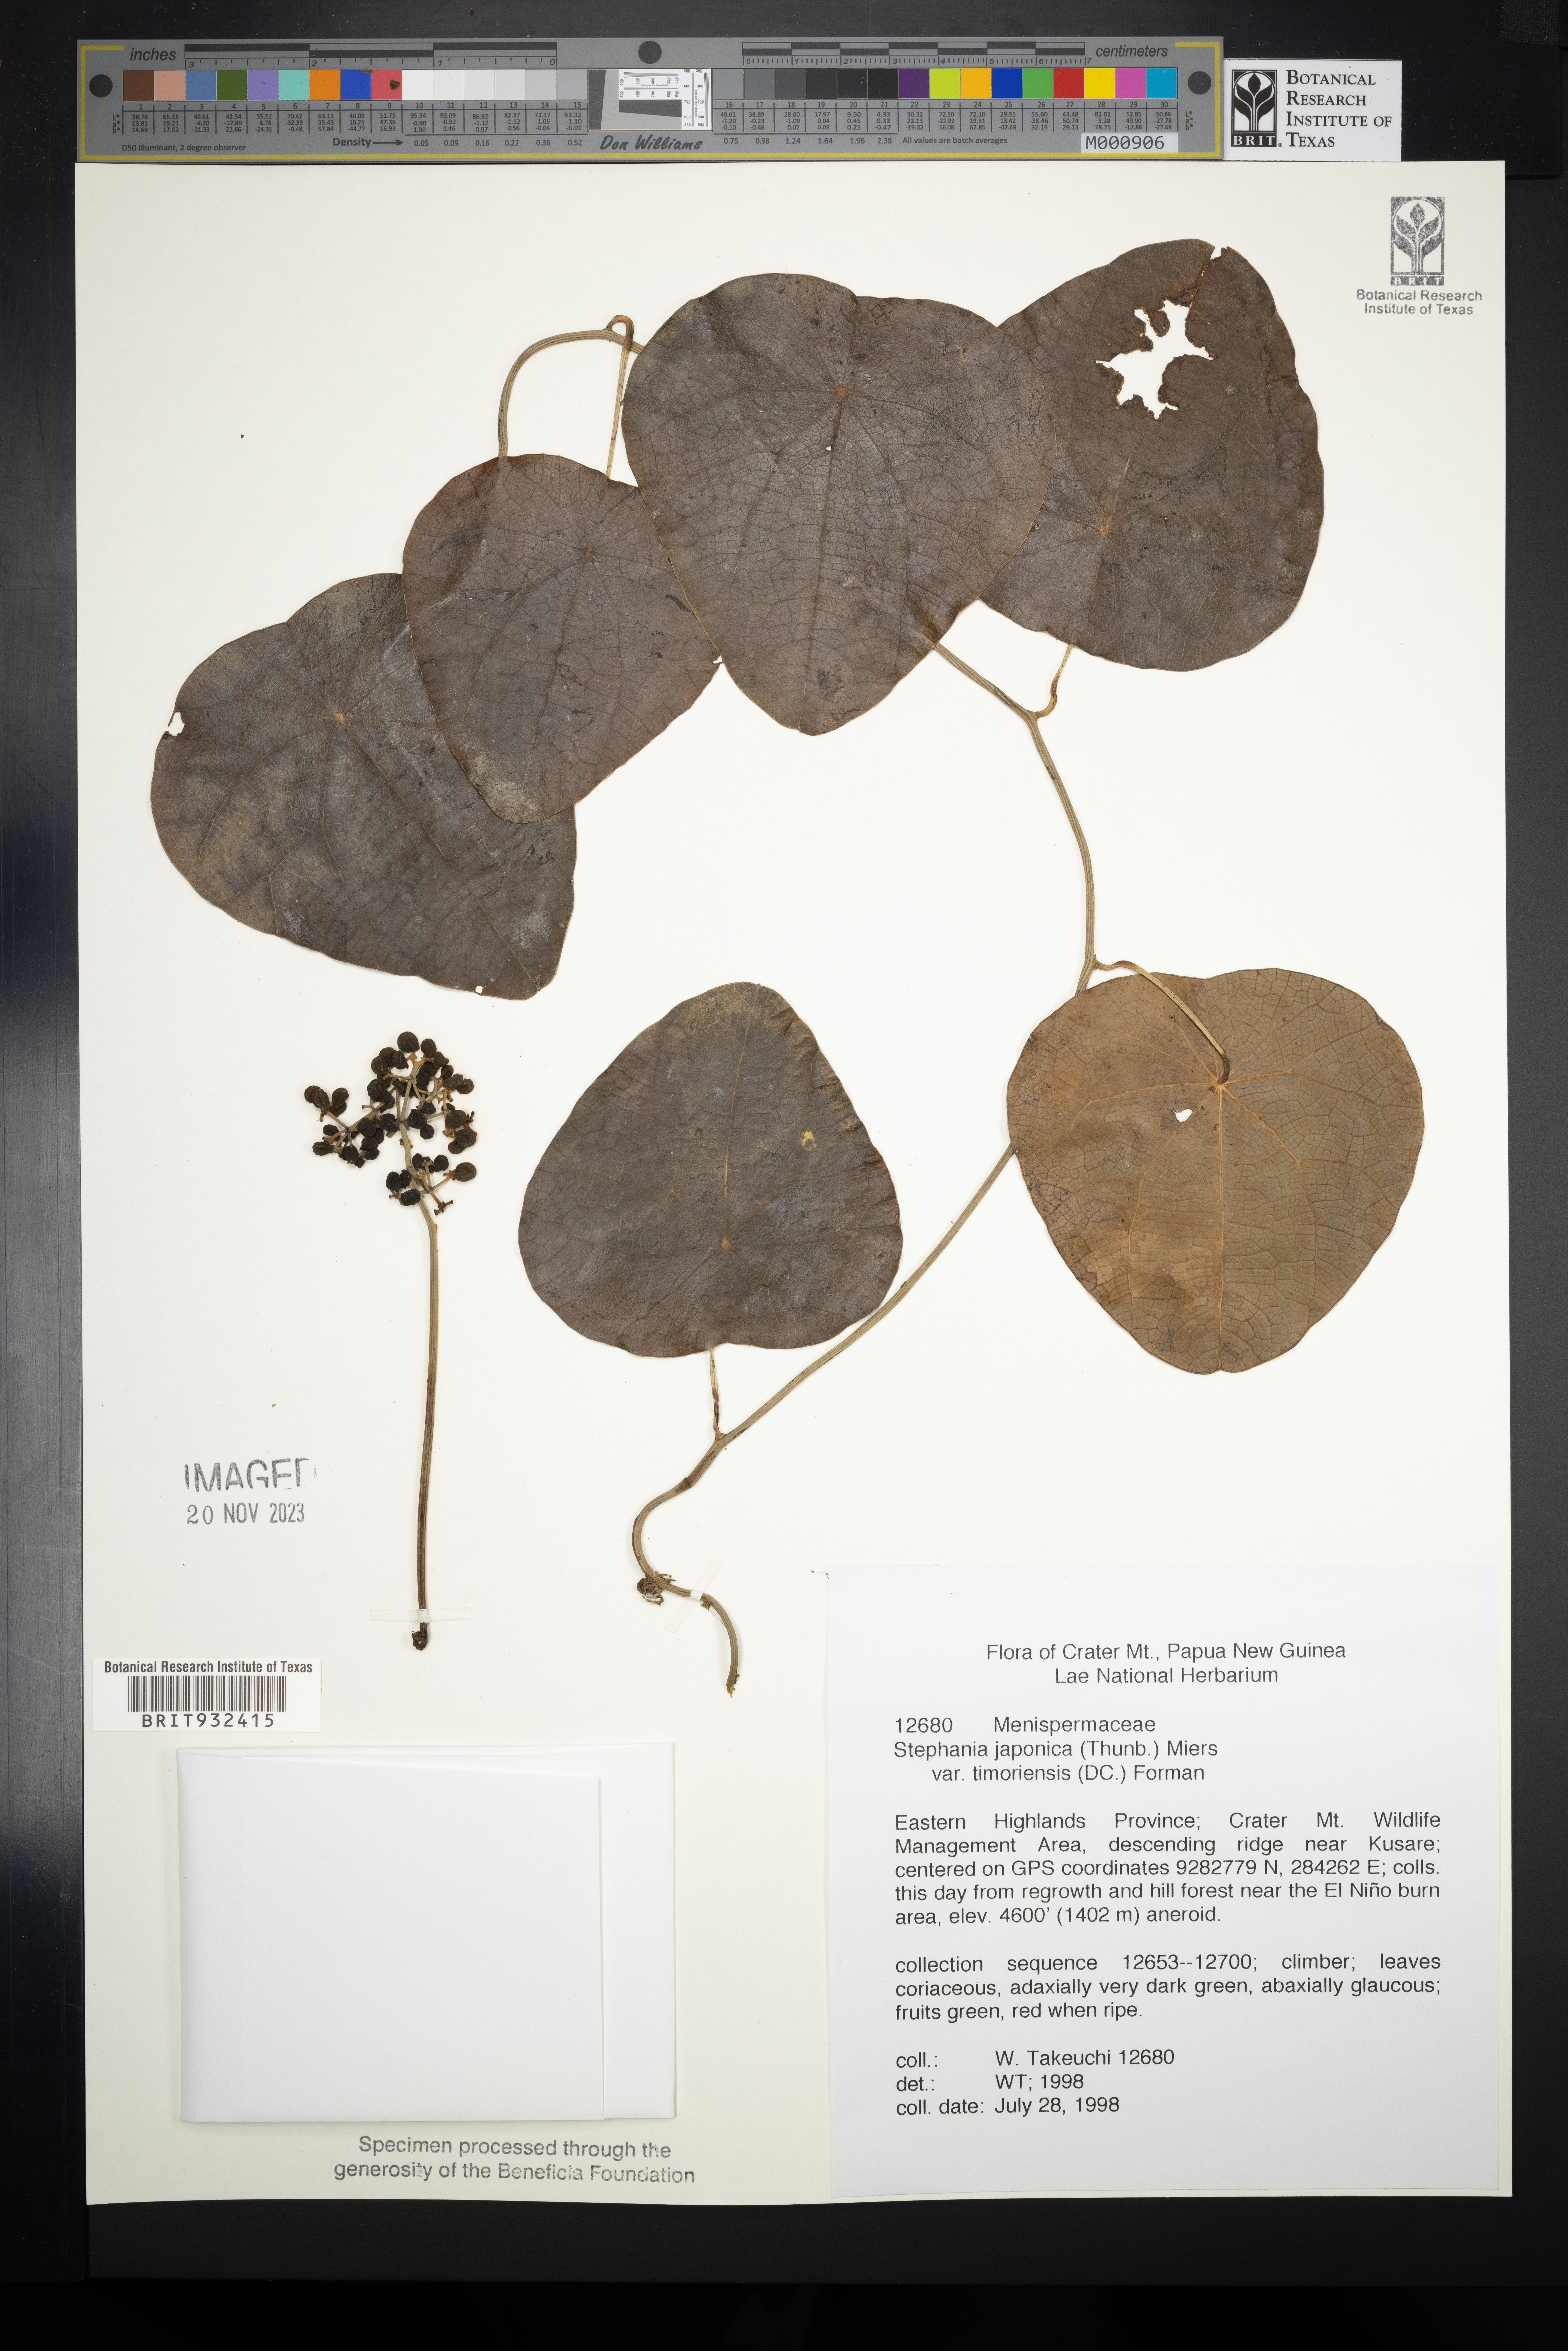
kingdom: Plantae
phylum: Tracheophyta
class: Magnoliopsida
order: Ranunculales
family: Menispermaceae
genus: Stephania
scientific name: Stephania japonica
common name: Snake vine
